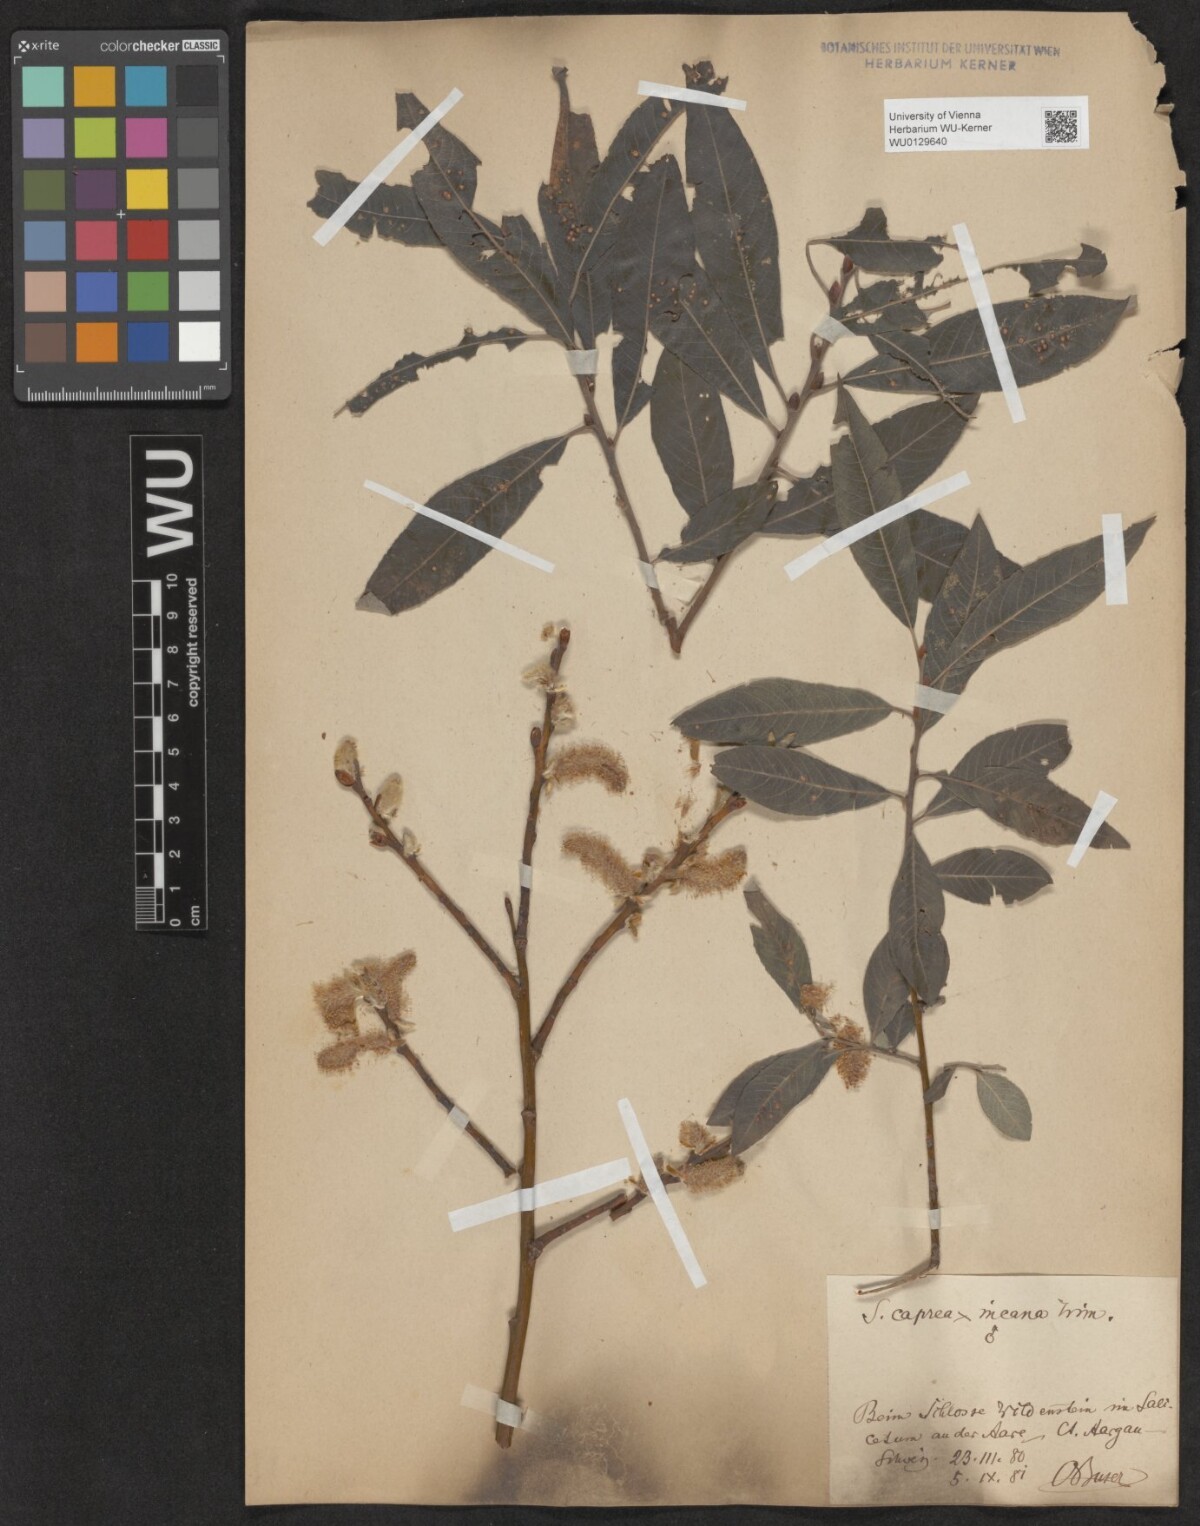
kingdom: Plantae
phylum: Tracheophyta
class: Magnoliopsida
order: Malpighiales
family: Salicaceae
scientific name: Salicaceae
